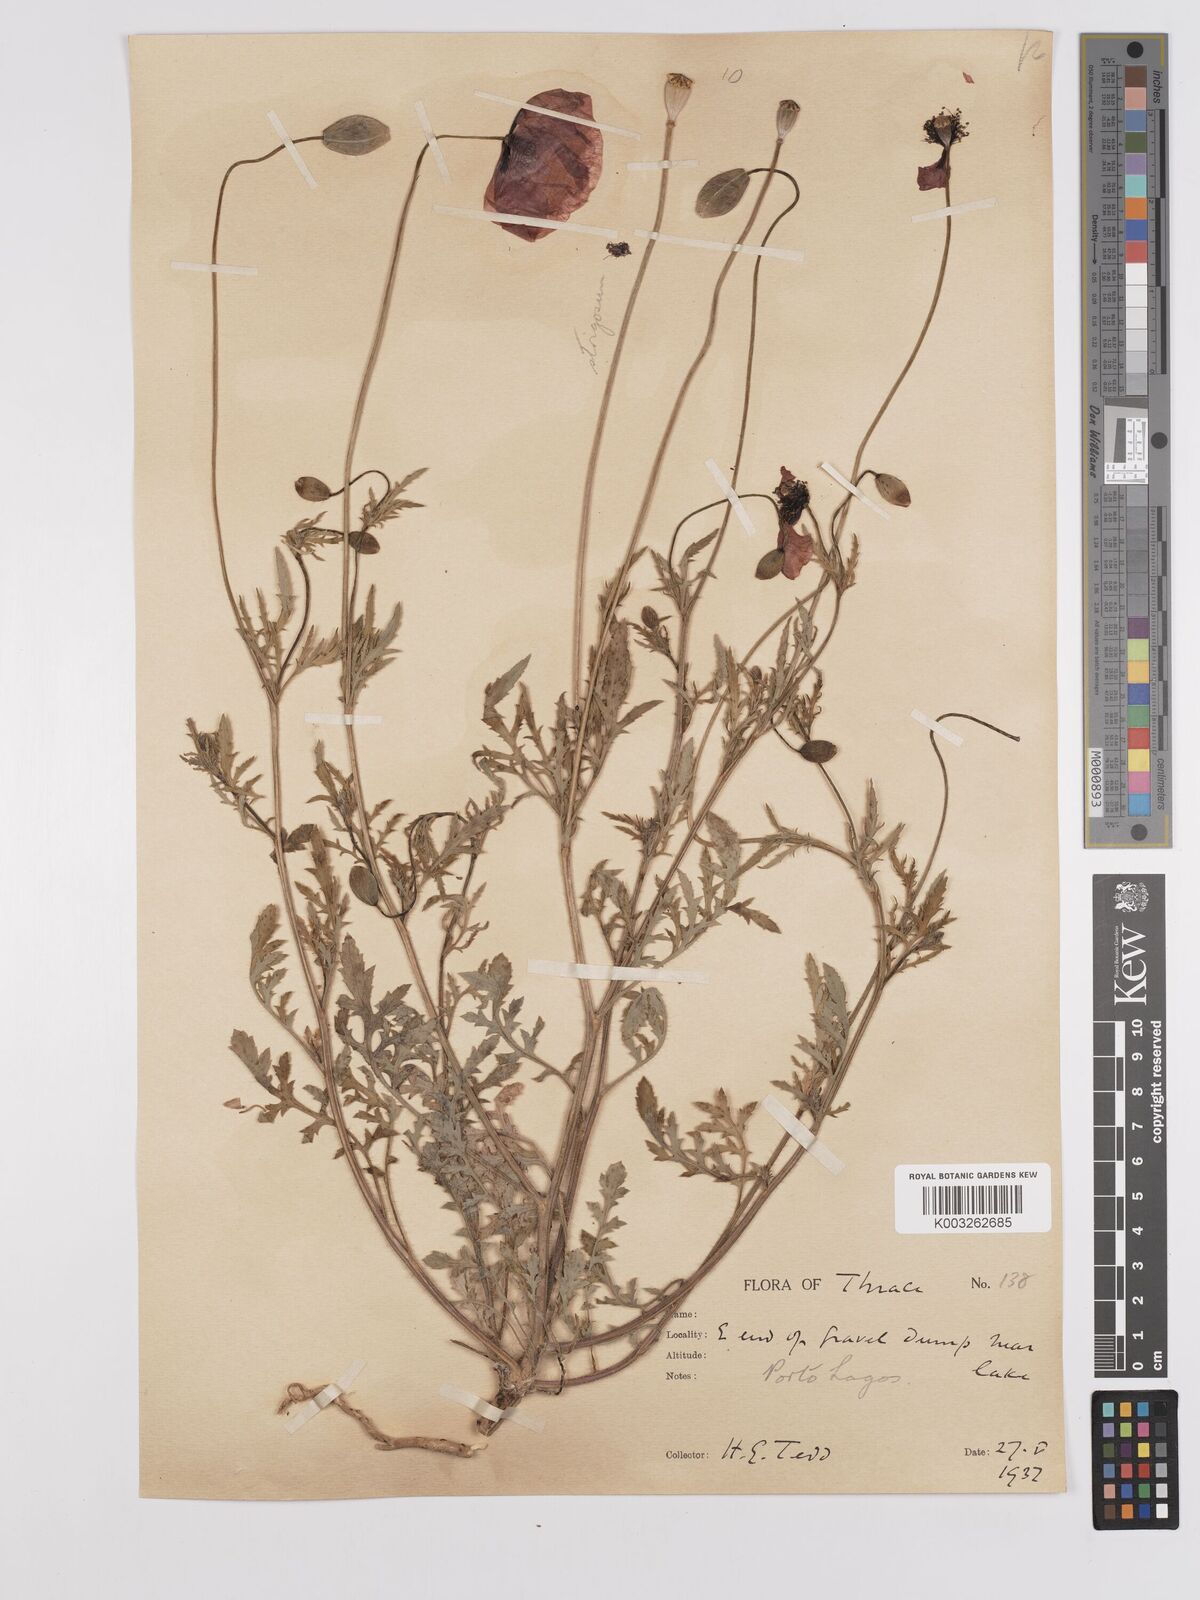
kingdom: Plantae
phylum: Tracheophyta
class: Magnoliopsida
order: Ranunculales
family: Papaveraceae
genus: Papaver
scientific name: Papaver
